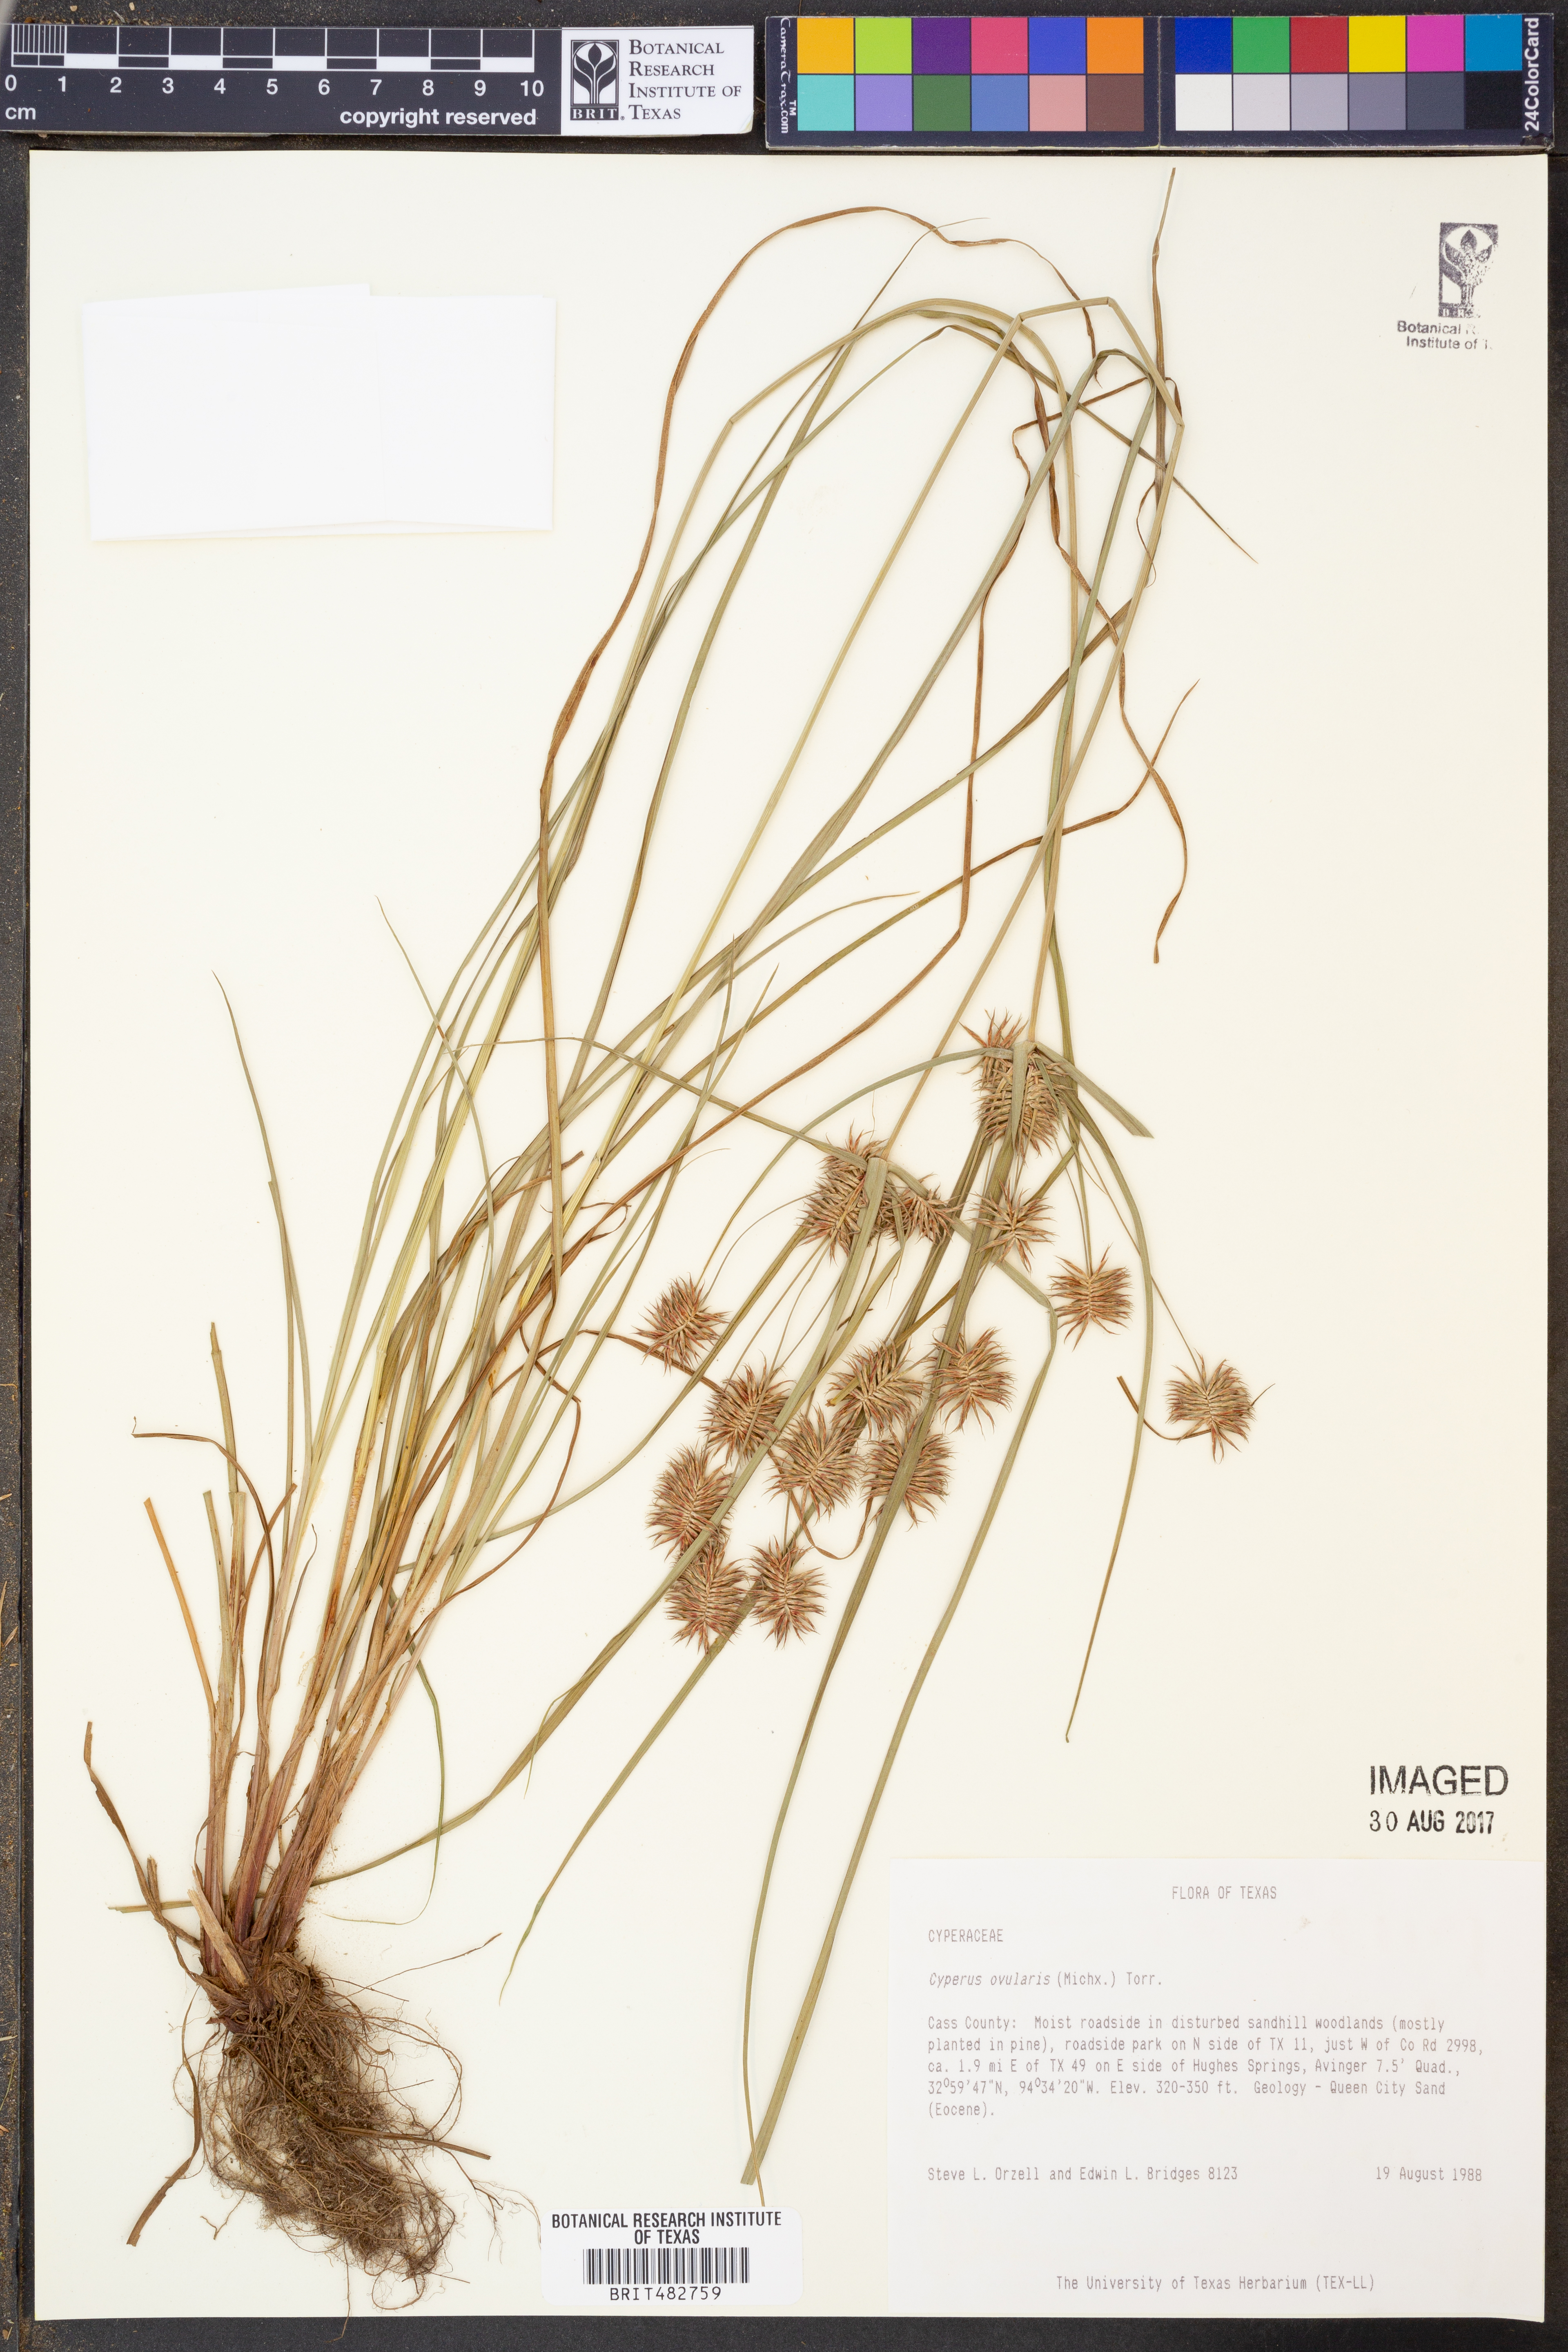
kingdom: Plantae
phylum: Tracheophyta
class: Liliopsida
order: Poales
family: Cyperaceae
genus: Cyperus
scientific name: Cyperus echinatus
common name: Teasel sedge
